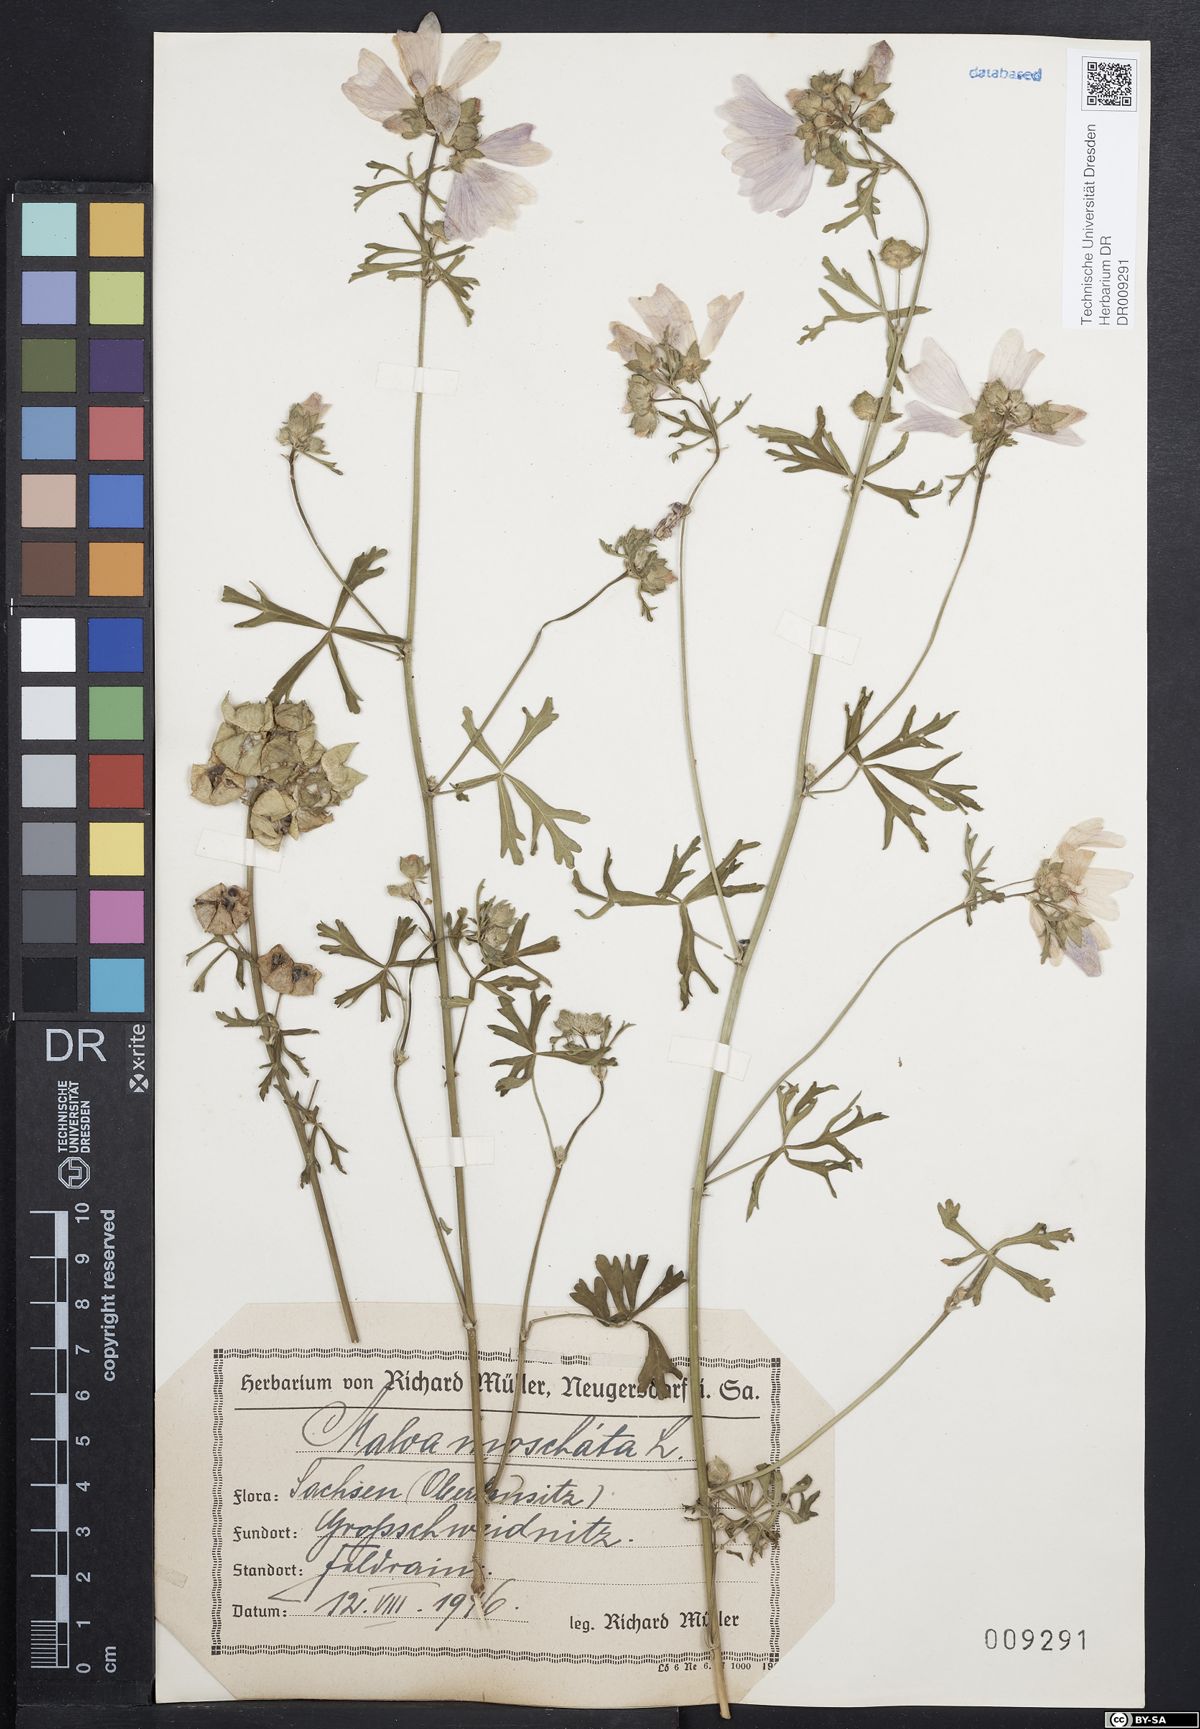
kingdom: Plantae
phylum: Tracheophyta
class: Magnoliopsida
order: Malvales
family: Malvaceae
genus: Malva
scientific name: Malva moschata
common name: Musk mallow
